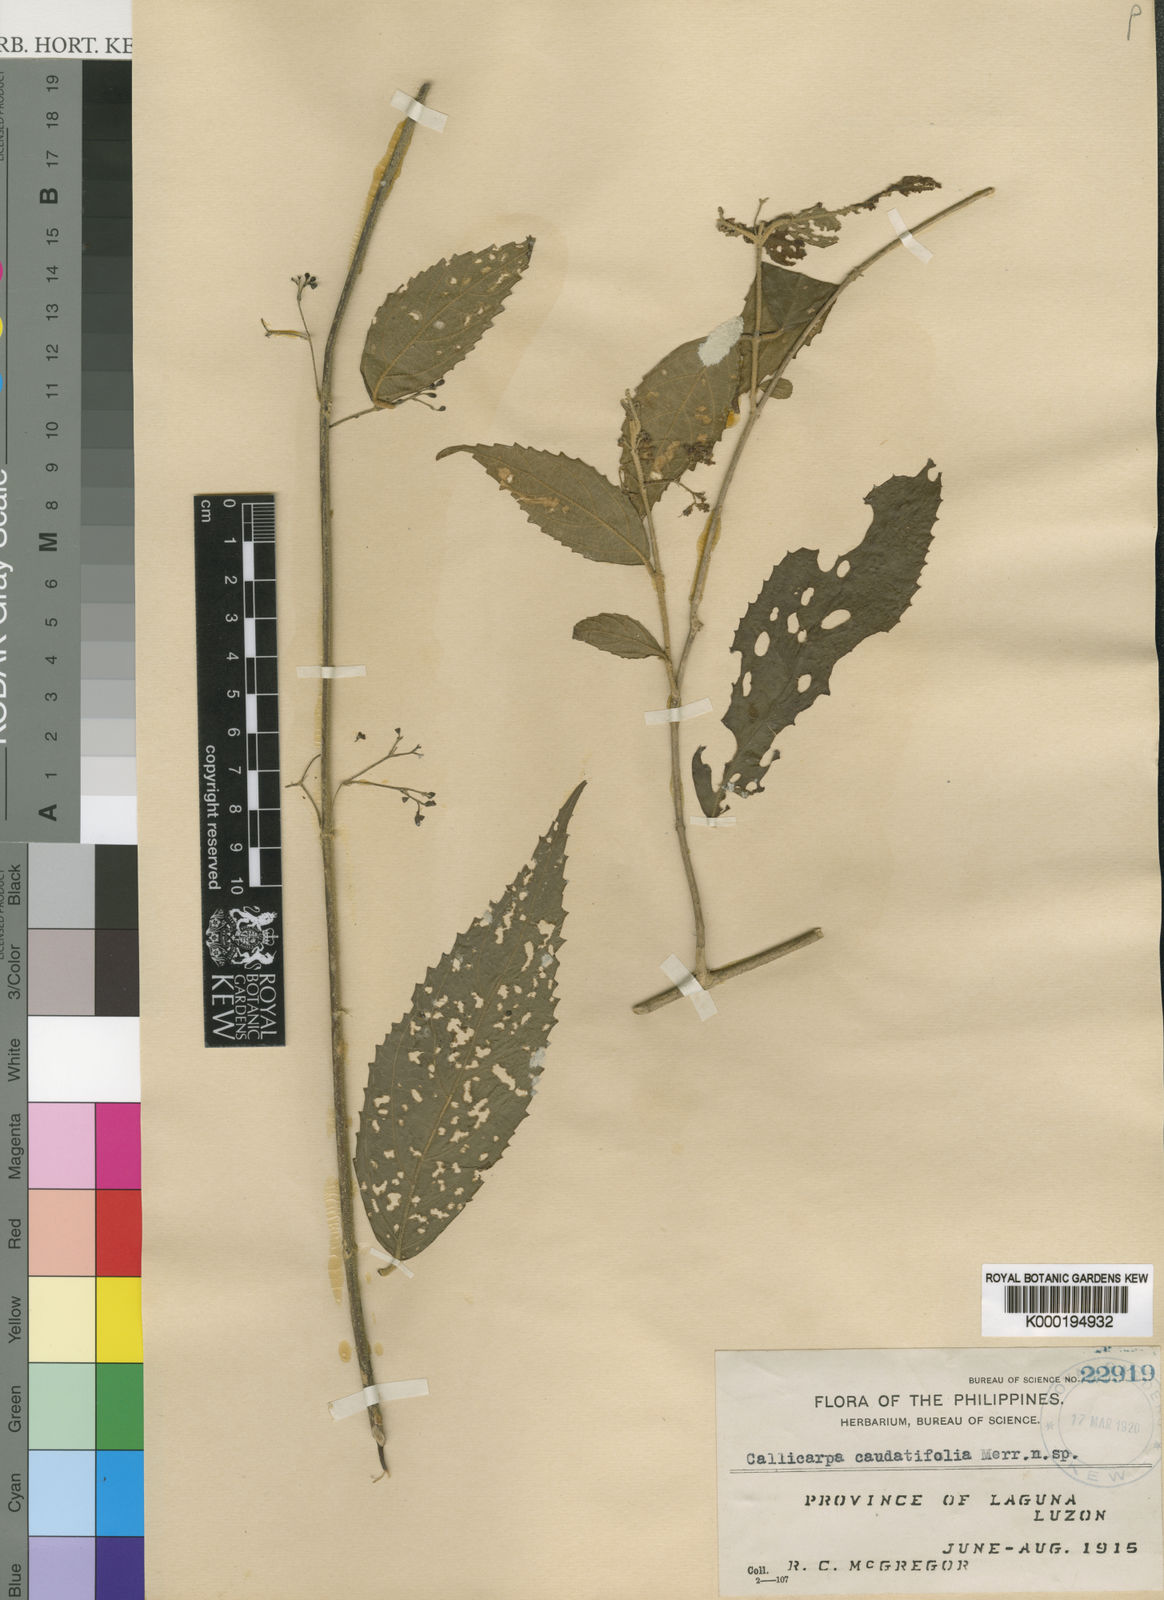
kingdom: Plantae
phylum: Tracheophyta
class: Magnoliopsida
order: Lamiales
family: Lamiaceae
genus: Callicarpa
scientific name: Callicarpa japonica
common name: Japanese beauty-berry
